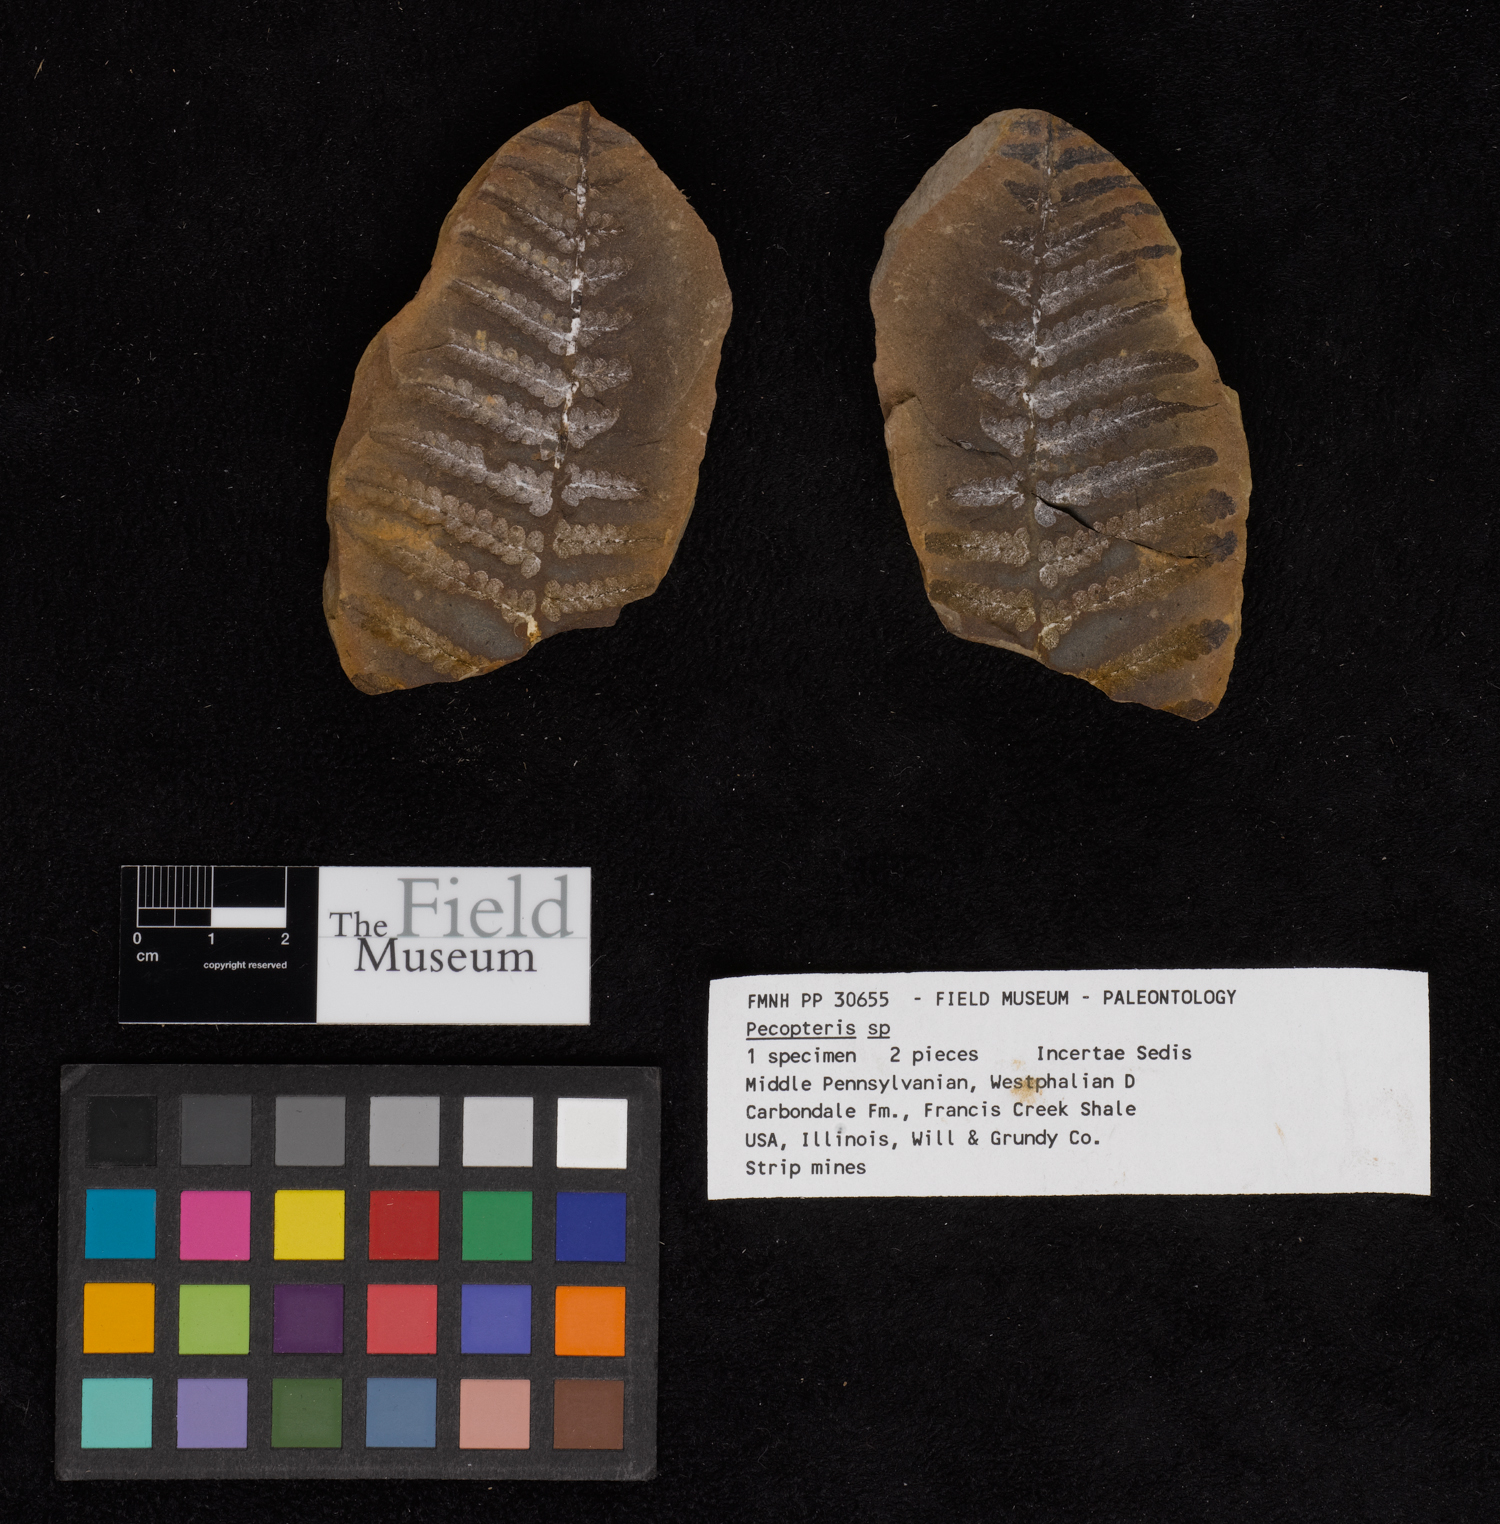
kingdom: Plantae
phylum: Tracheophyta
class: Polypodiopsida
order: Marattiales
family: Asterothecaceae
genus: Pecopteris
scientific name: Pecopteris
